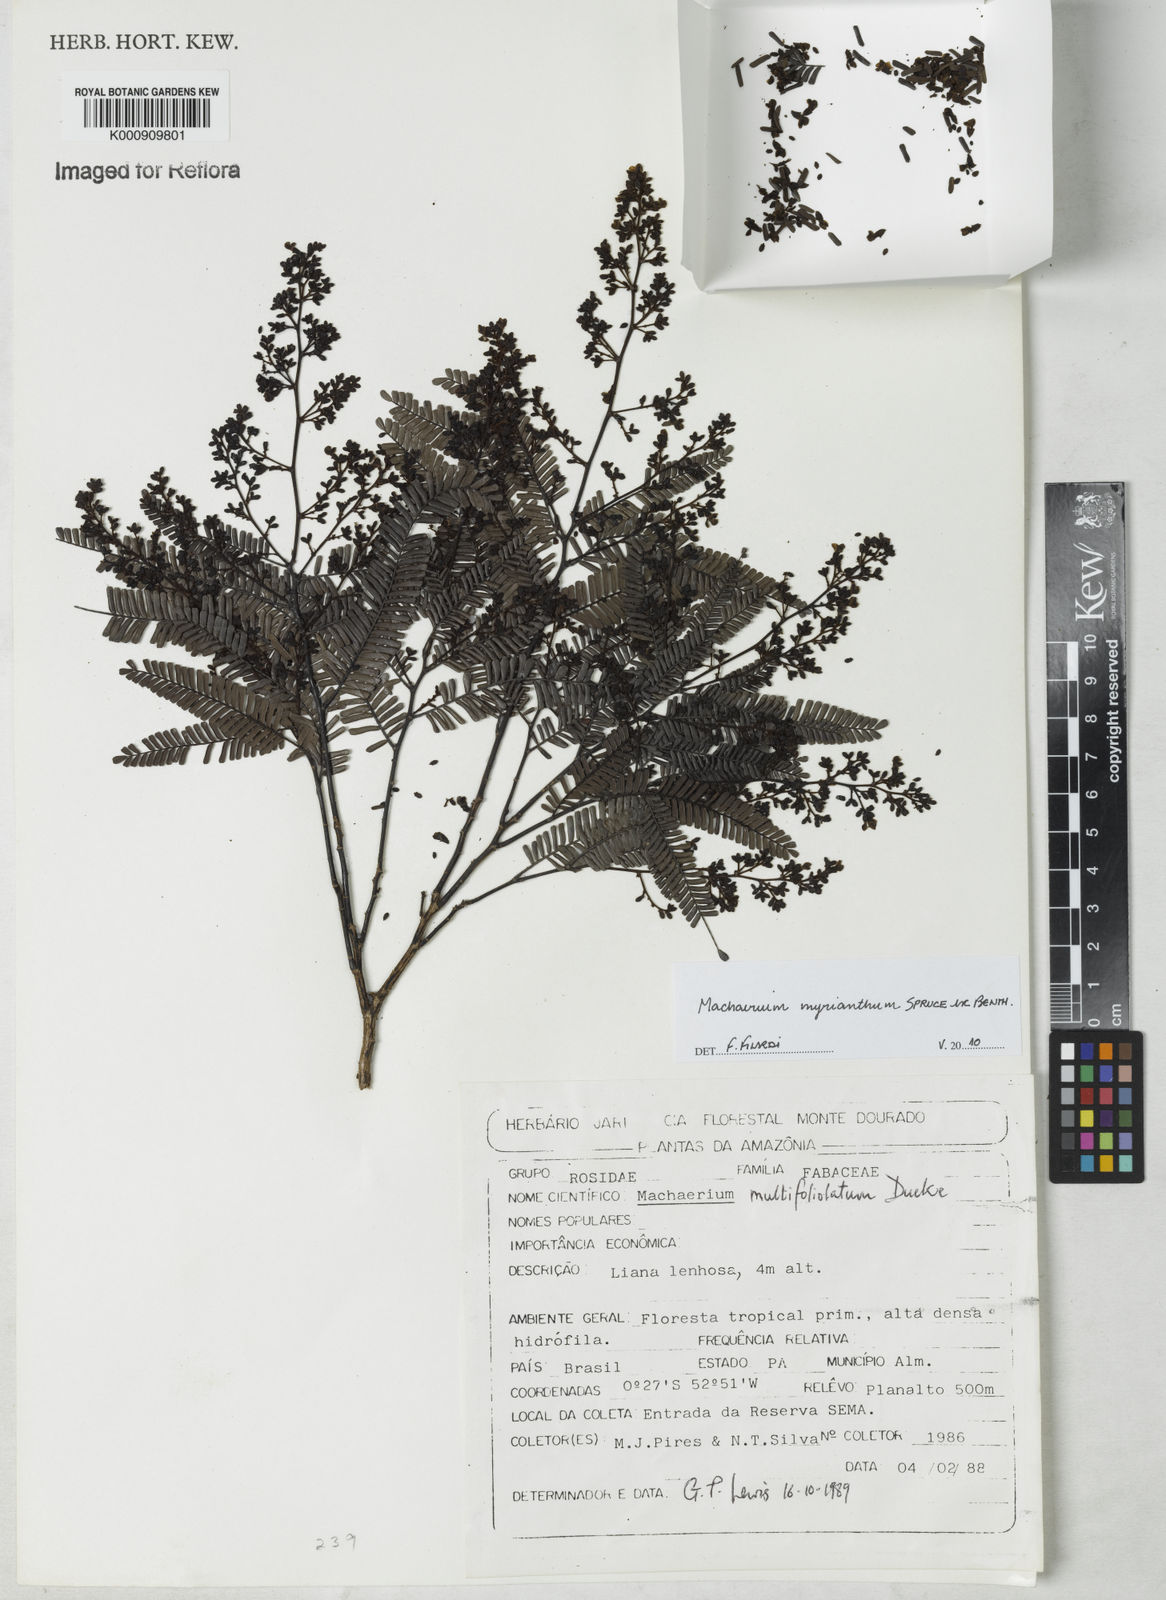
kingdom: Plantae
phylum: Tracheophyta
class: Magnoliopsida
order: Fabales
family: Fabaceae
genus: Machaerium
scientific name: Machaerium multifoliolatum
